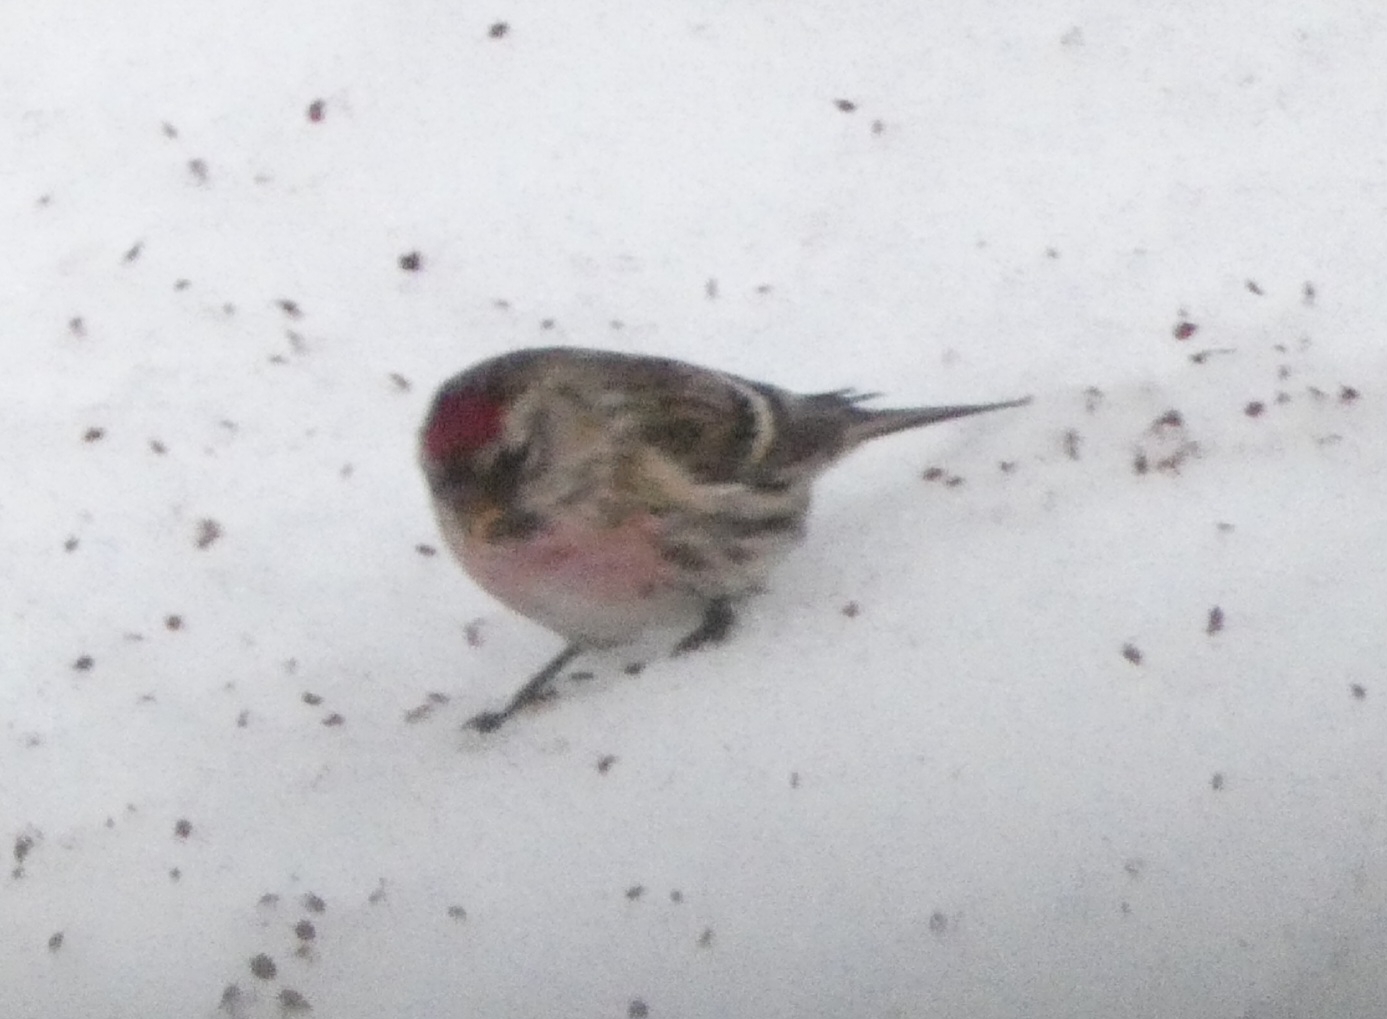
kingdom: Animalia
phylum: Chordata
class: Aves
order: Passeriformes
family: Fringillidae
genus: Acanthis
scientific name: Acanthis flammea
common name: Nordlig gråsisken
